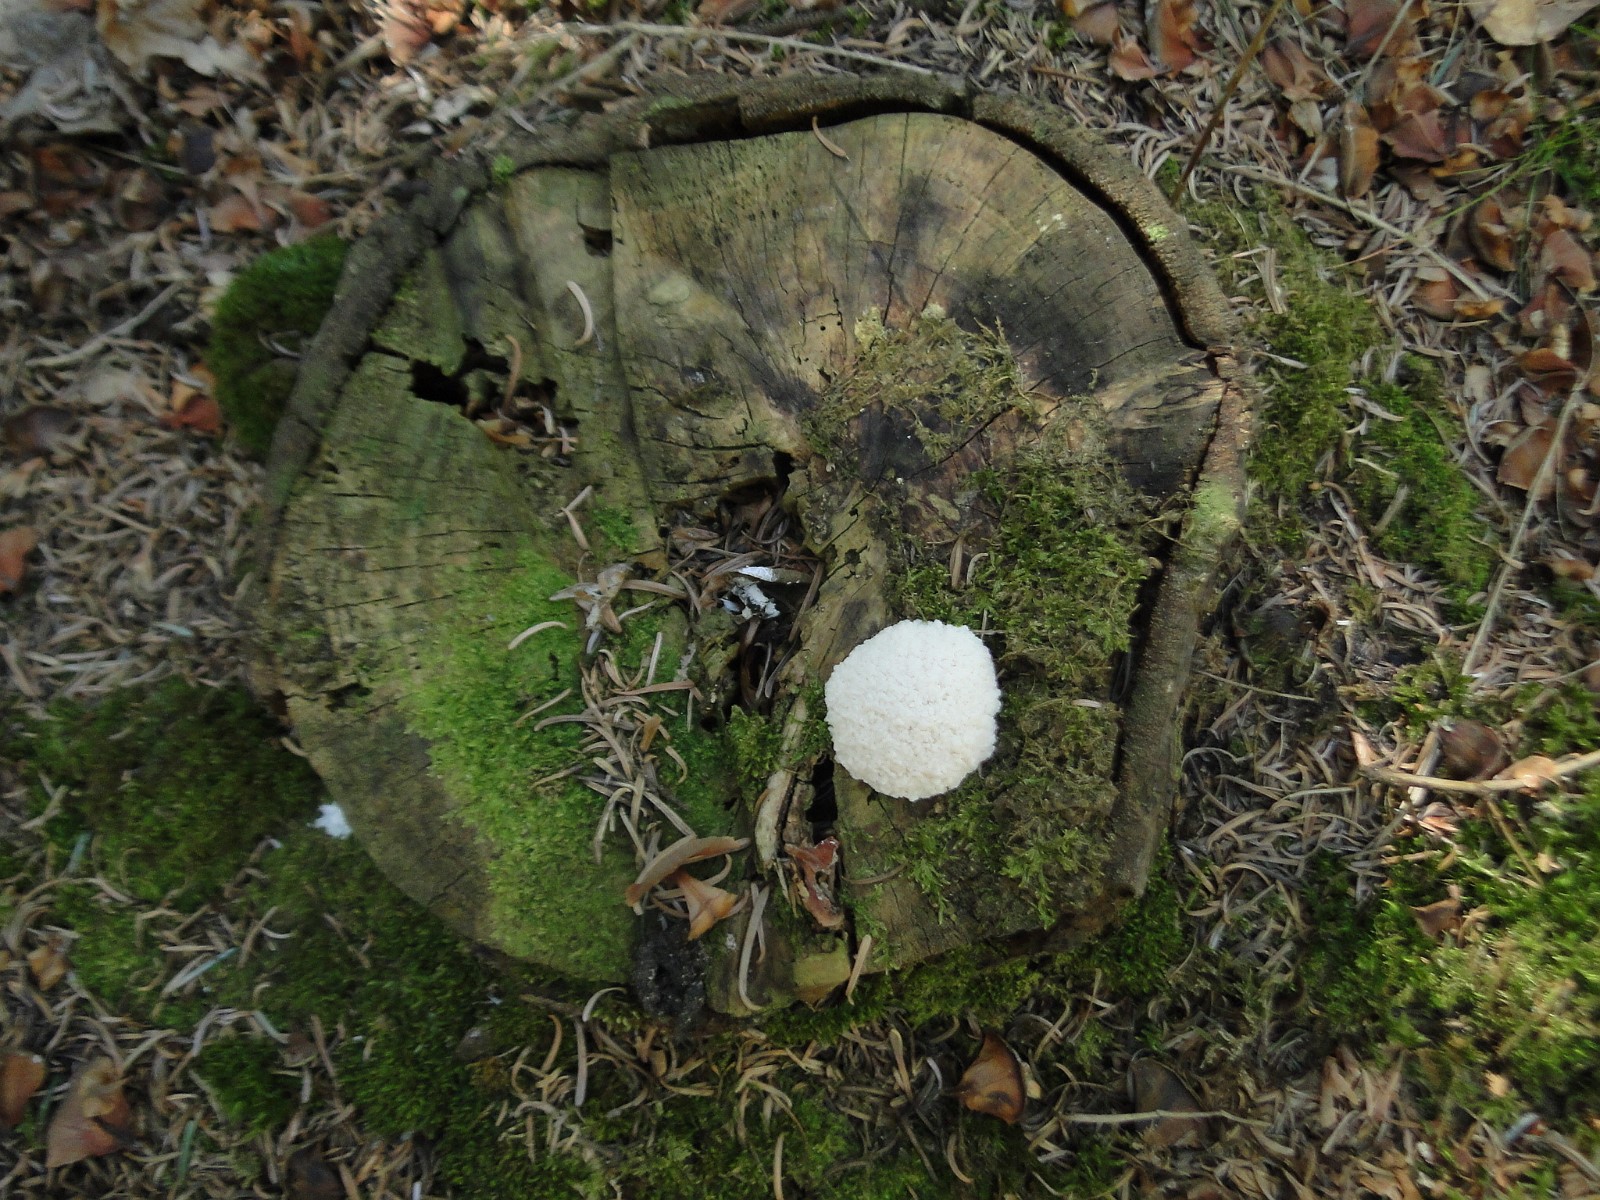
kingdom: Protozoa
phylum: Mycetozoa
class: Myxomycetes
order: Cribrariales
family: Tubiferaceae
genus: Reticularia
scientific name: Reticularia lycoperdon
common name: skinnende støvpude
